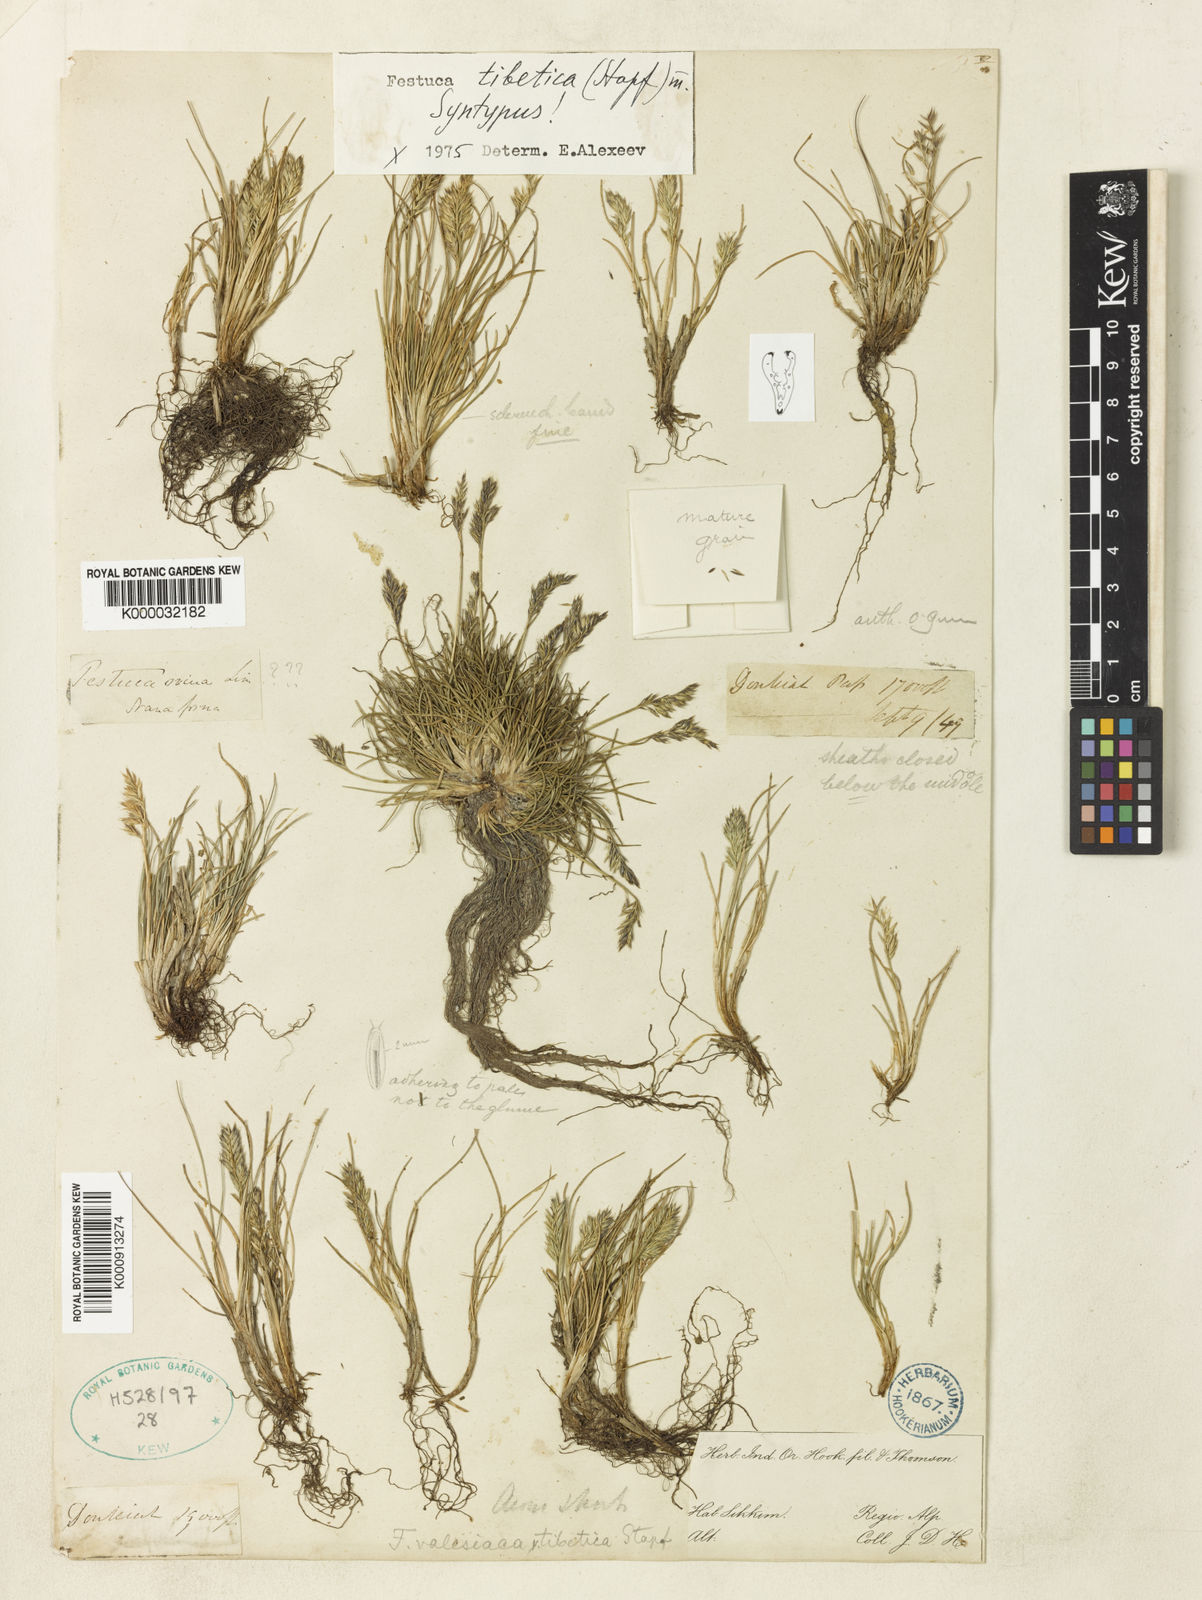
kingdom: Plantae
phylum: Tracheophyta
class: Liliopsida
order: Poales
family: Poaceae
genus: Festuca
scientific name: Festuca tibetica
